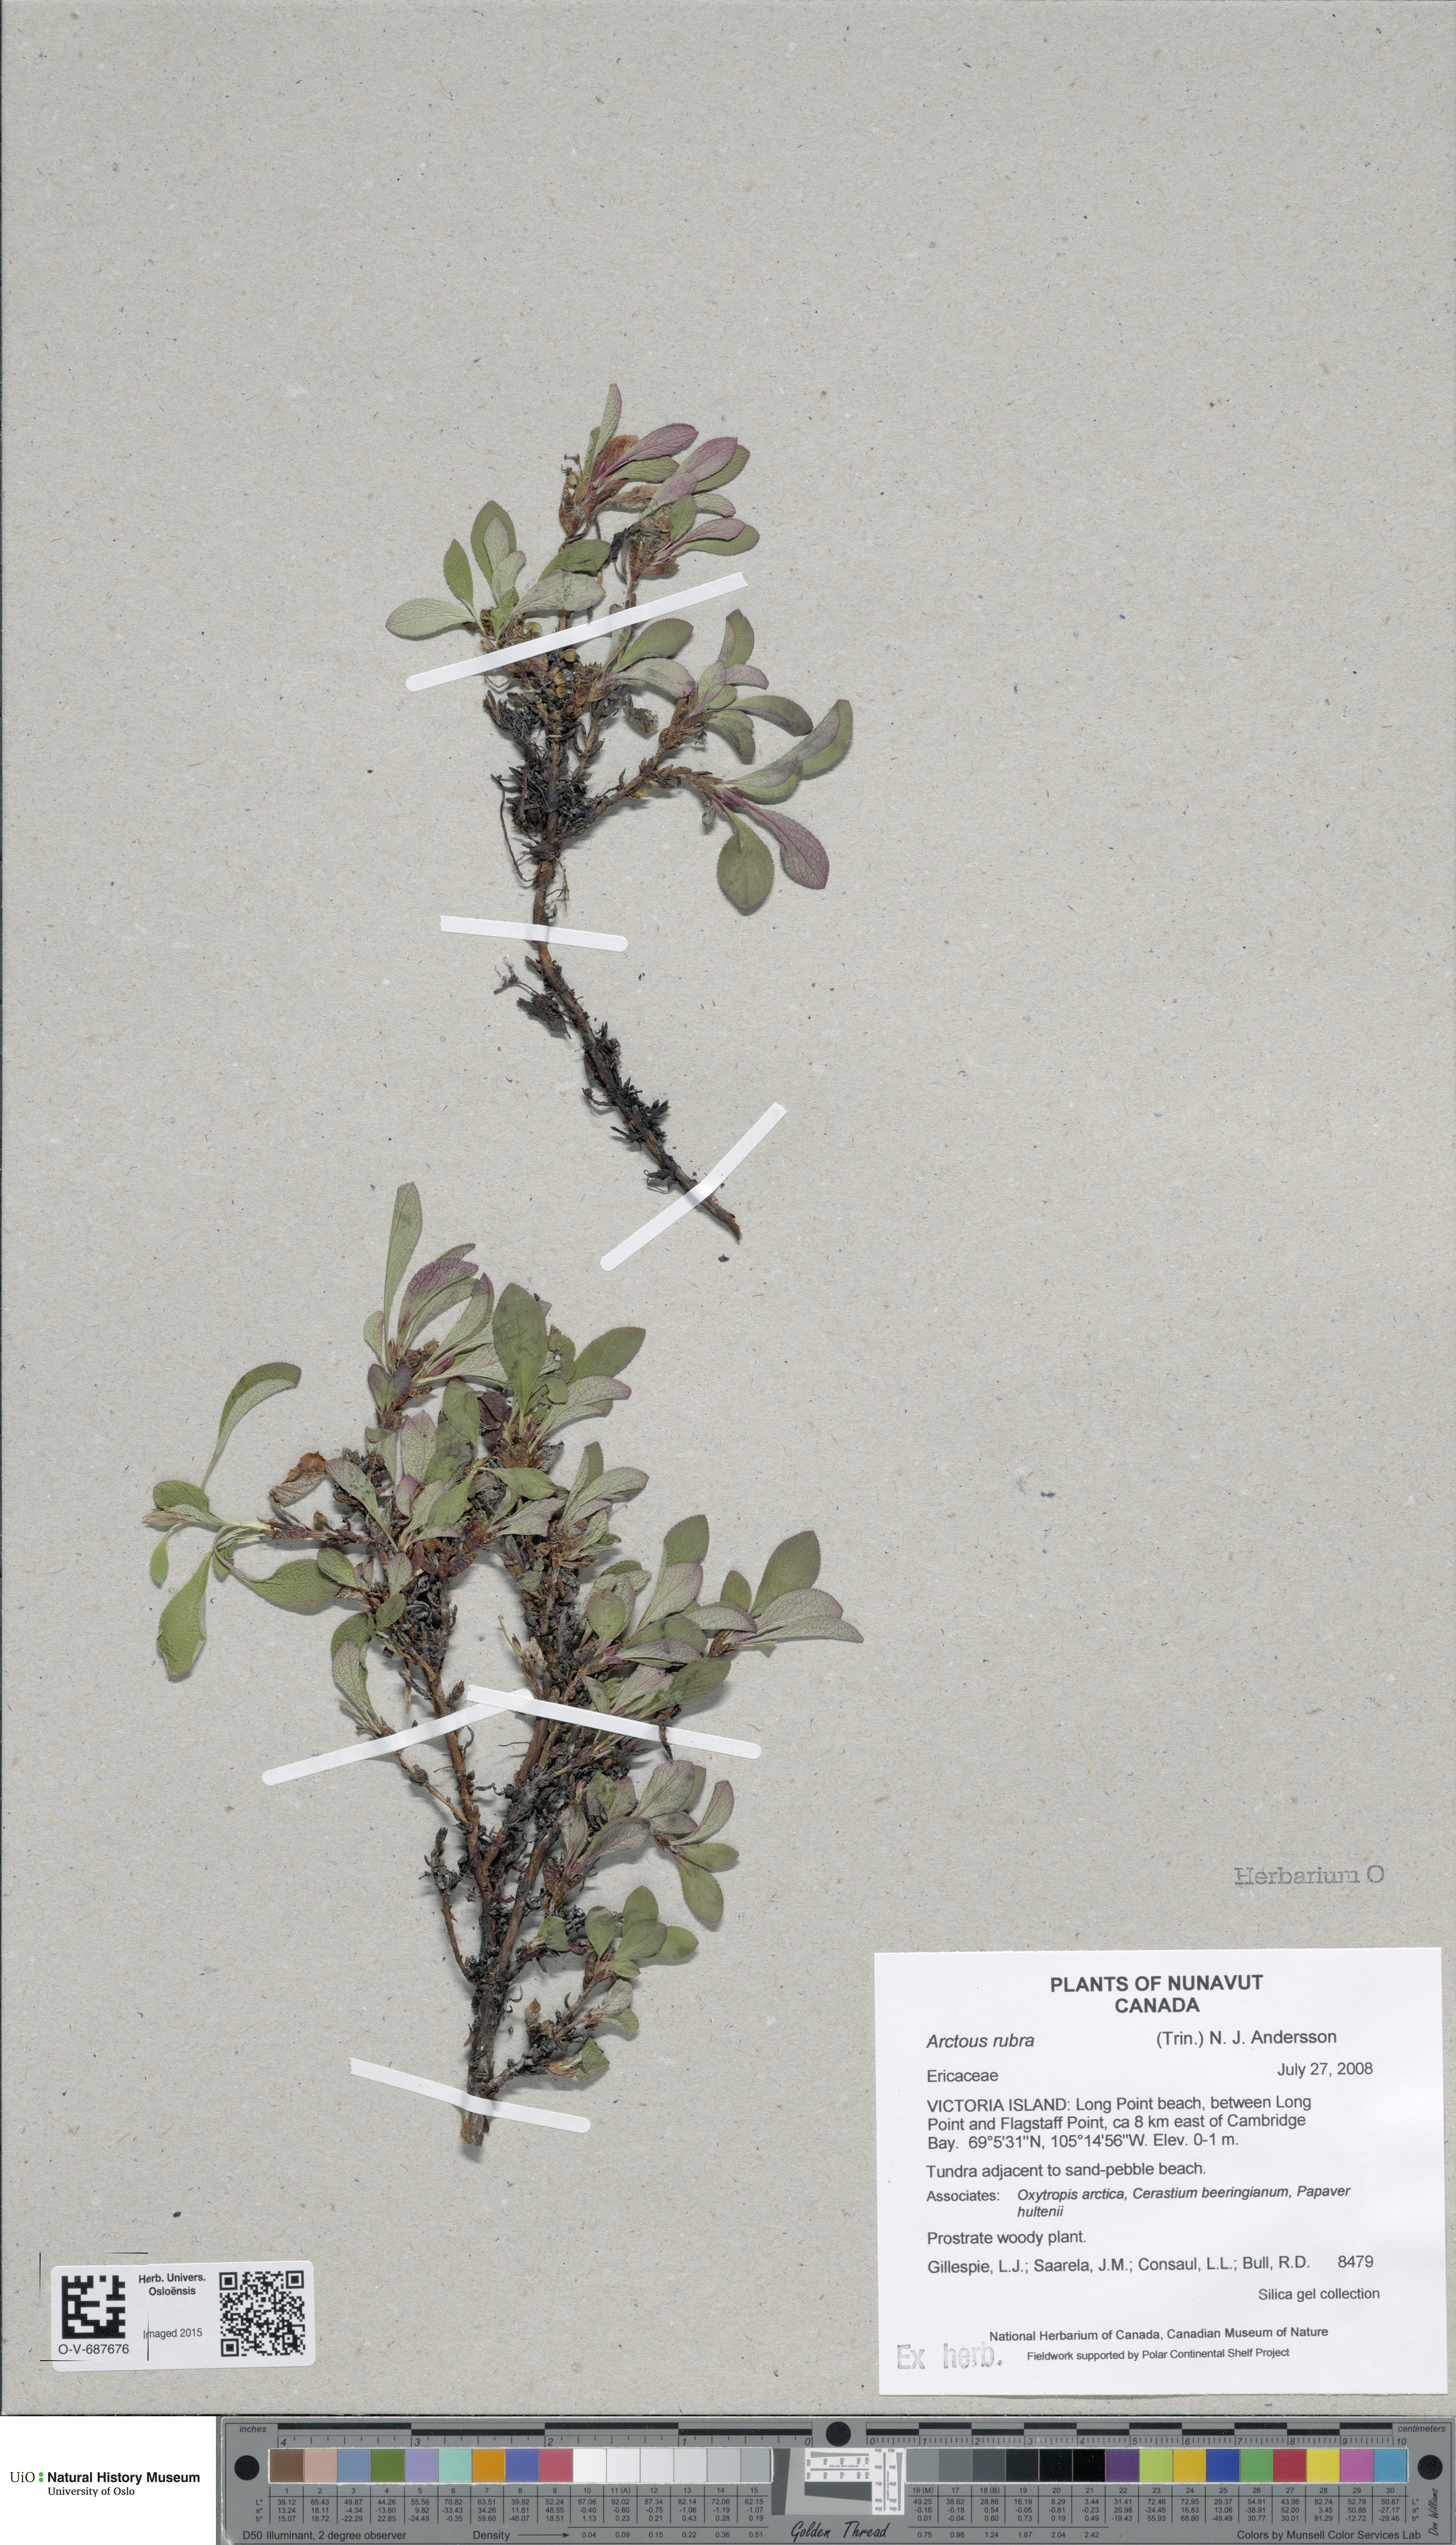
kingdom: Plantae
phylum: Tracheophyta
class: Magnoliopsida
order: Ericales
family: Ericaceae
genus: Arctostaphylos
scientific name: Arctostaphylos rubra
